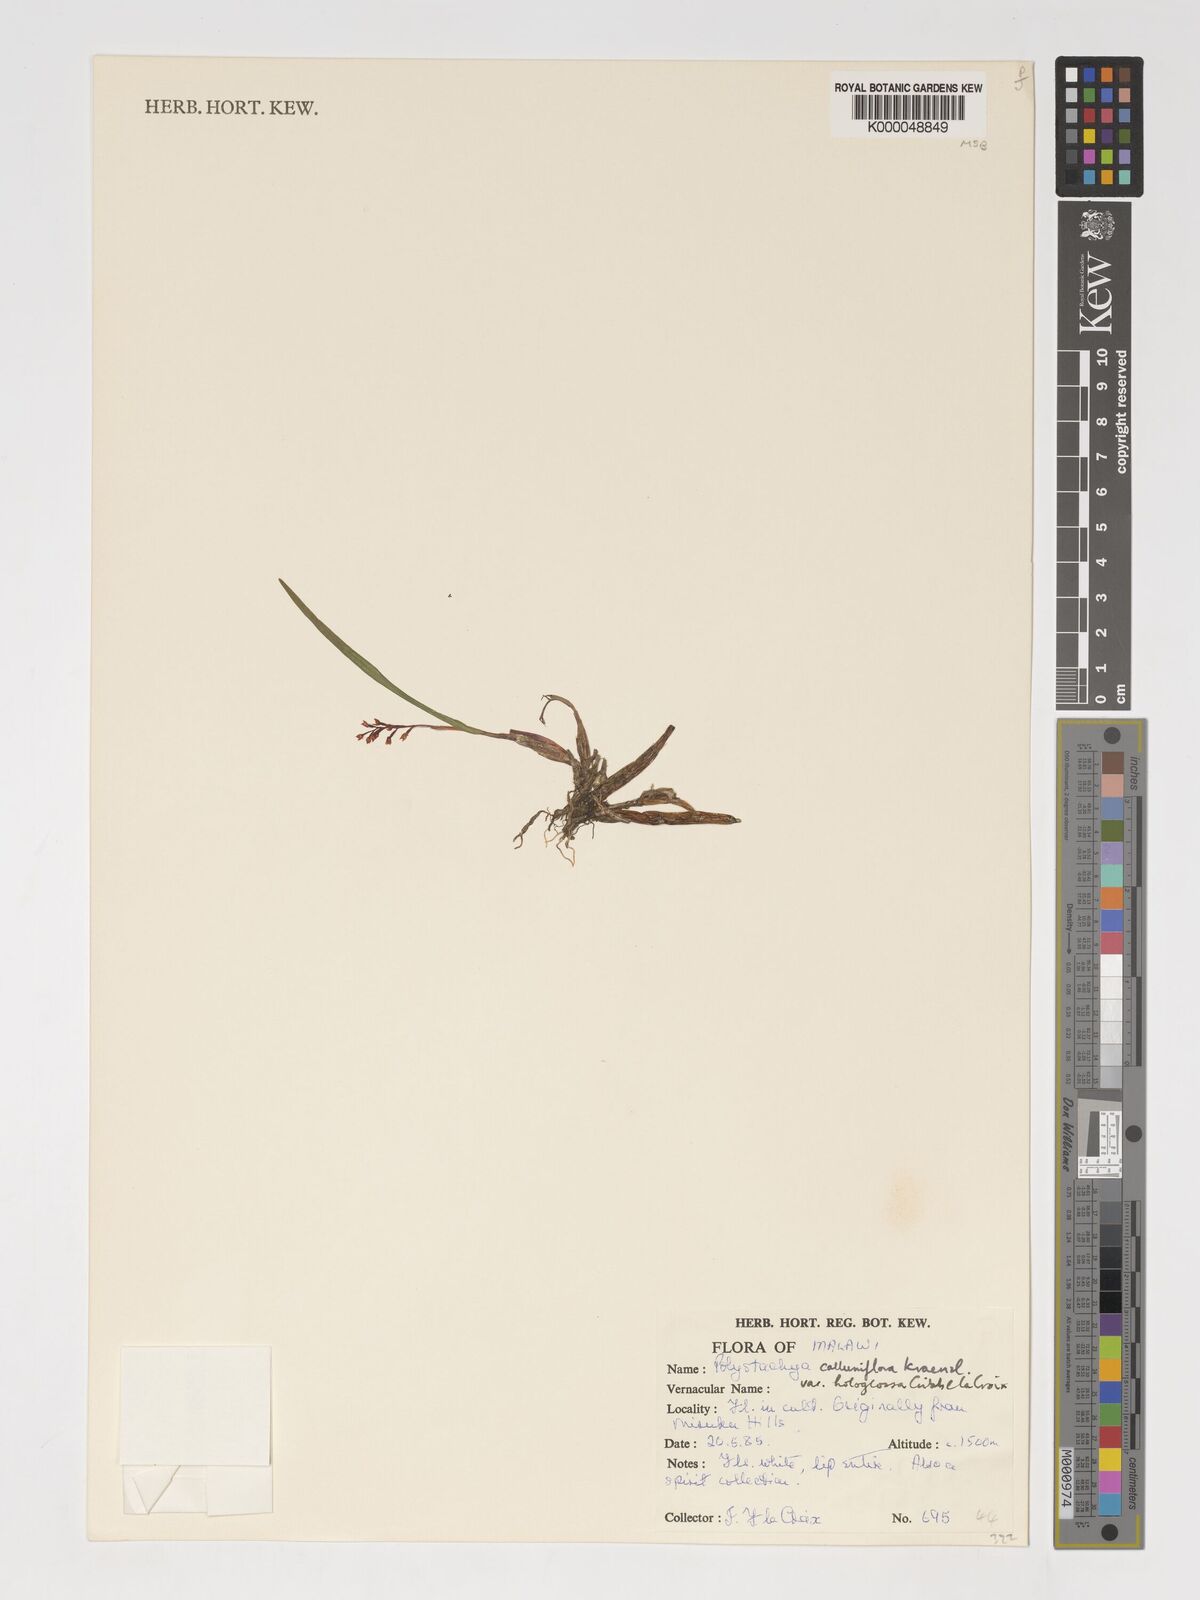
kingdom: Plantae
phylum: Tracheophyta
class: Liliopsida
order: Asparagales
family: Orchidaceae
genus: Polystachya
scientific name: Polystachya hologlossa
